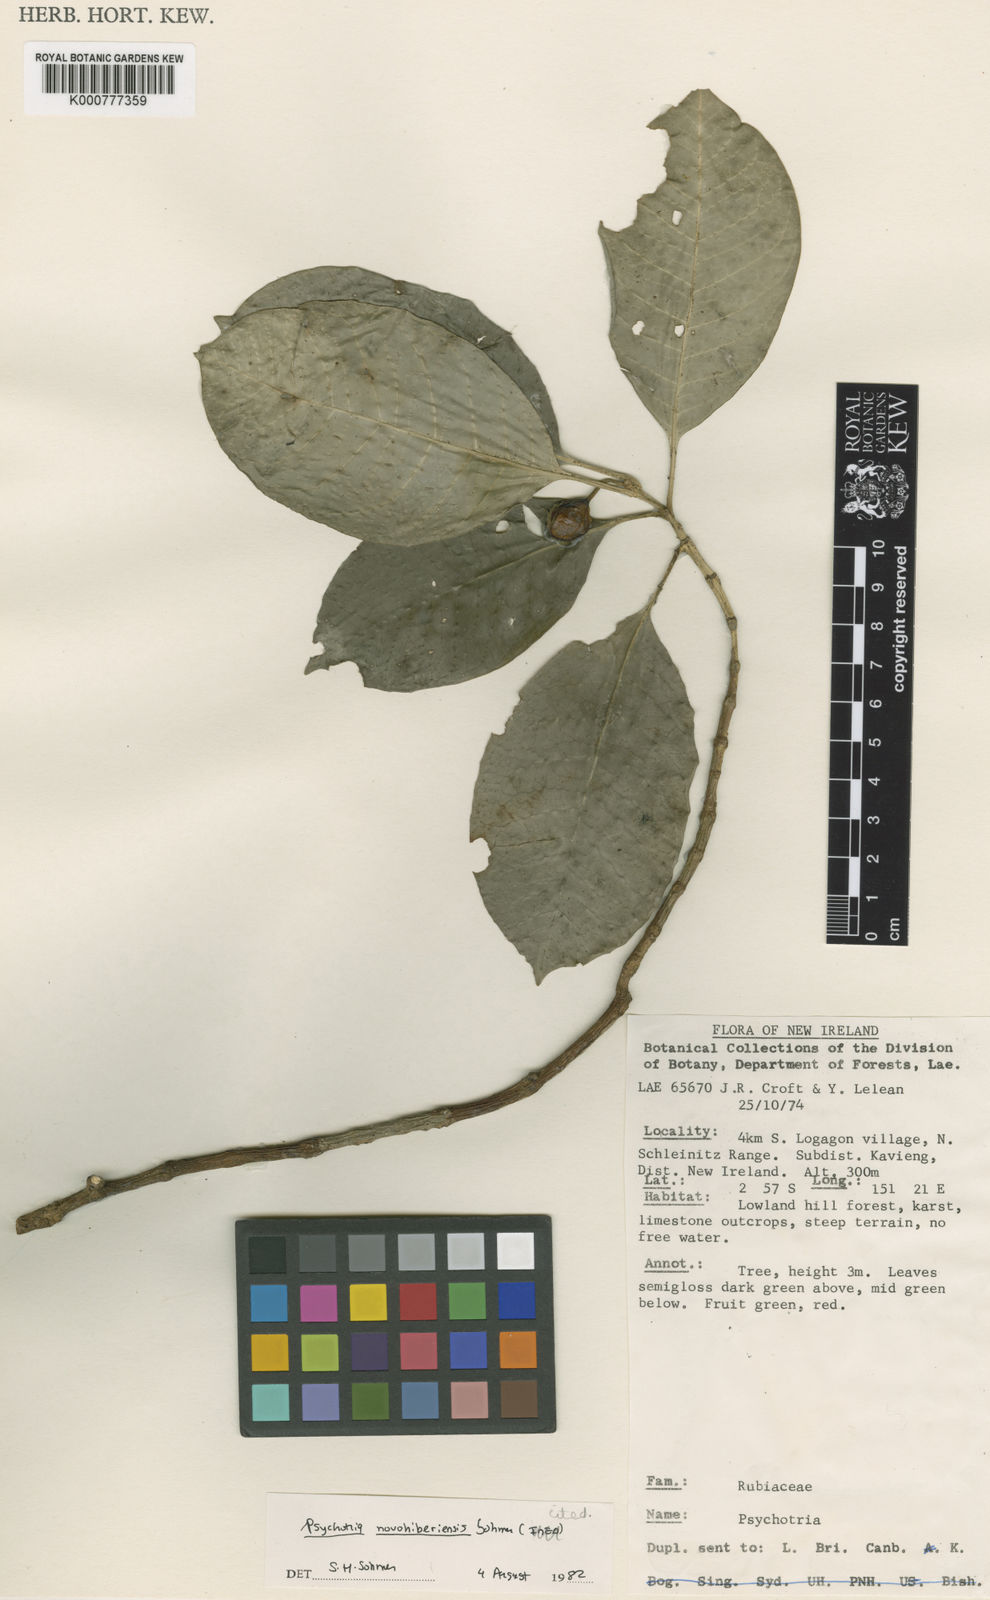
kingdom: Plantae
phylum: Tracheophyta
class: Magnoliopsida
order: Gentianales
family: Rubiaceae
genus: Eumachia
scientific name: Eumachia novohiberiensis
